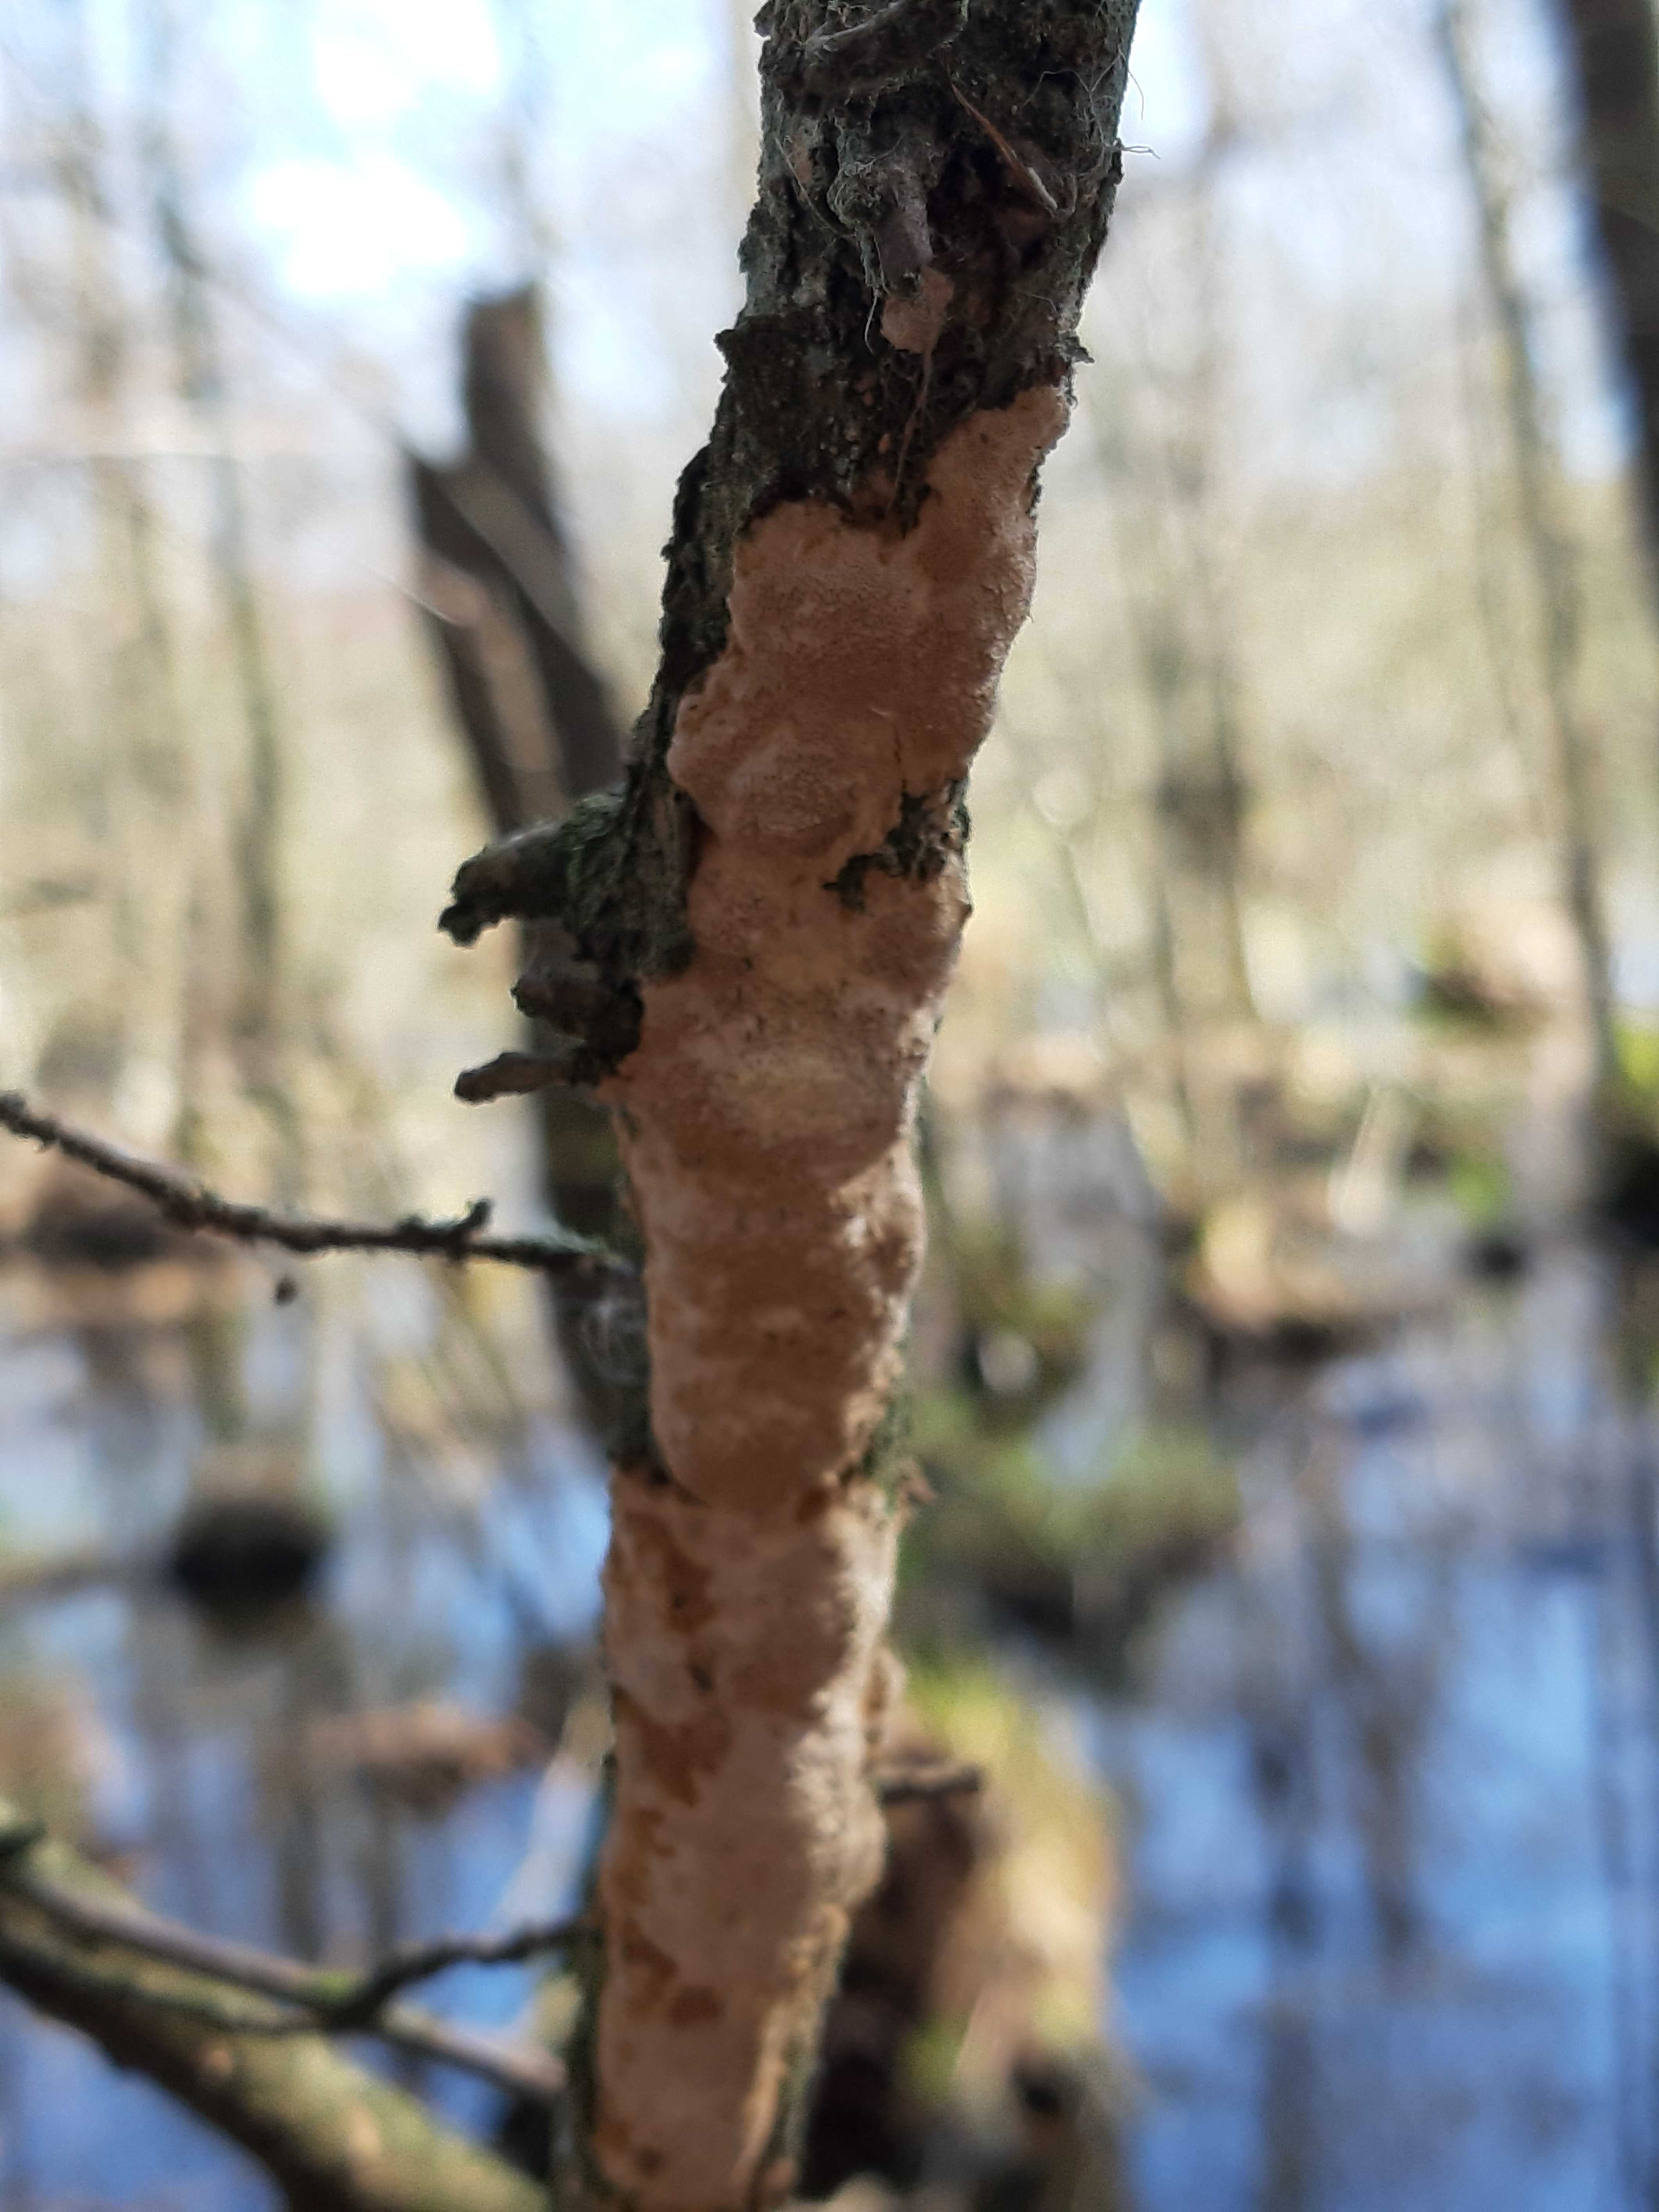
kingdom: Fungi
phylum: Basidiomycota
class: Agaricomycetes
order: Polyporales
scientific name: Polyporales
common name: poresvampordenen
